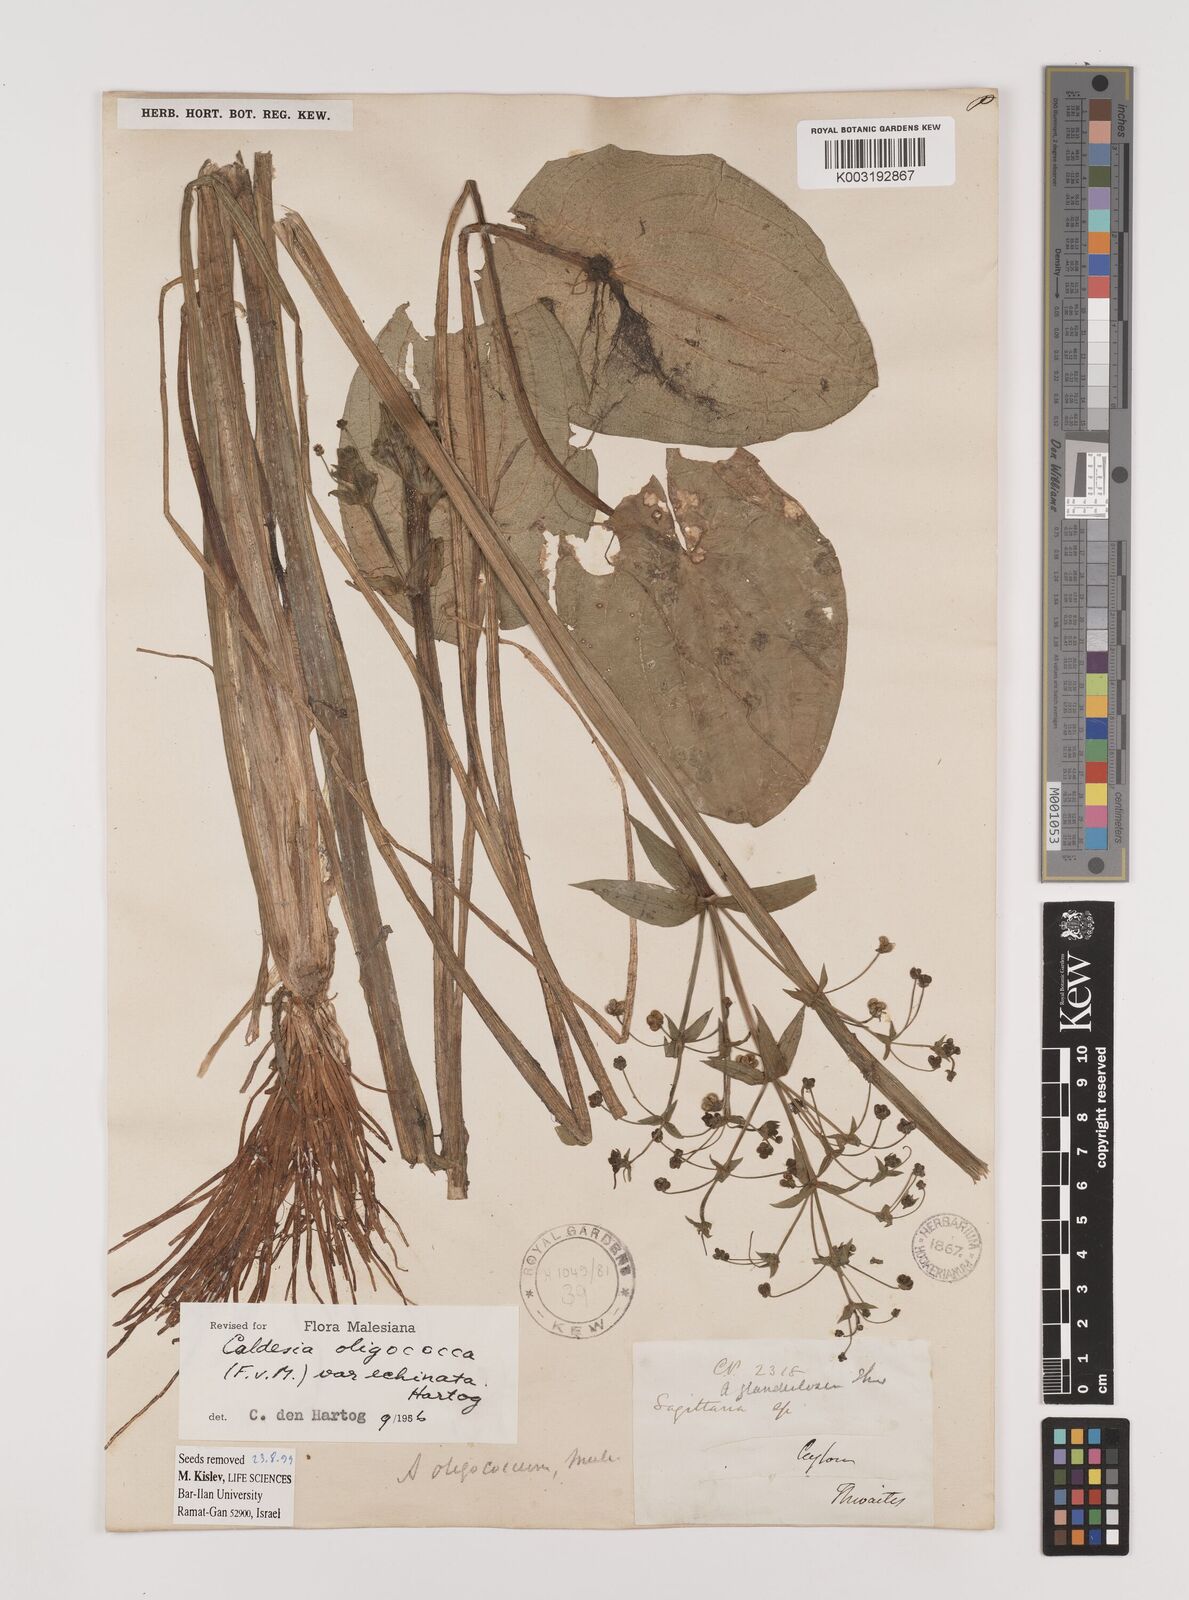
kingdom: Plantae
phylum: Tracheophyta
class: Liliopsida
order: Alismatales
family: Alismataceae
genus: Albidella
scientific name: Albidella glandulosa
